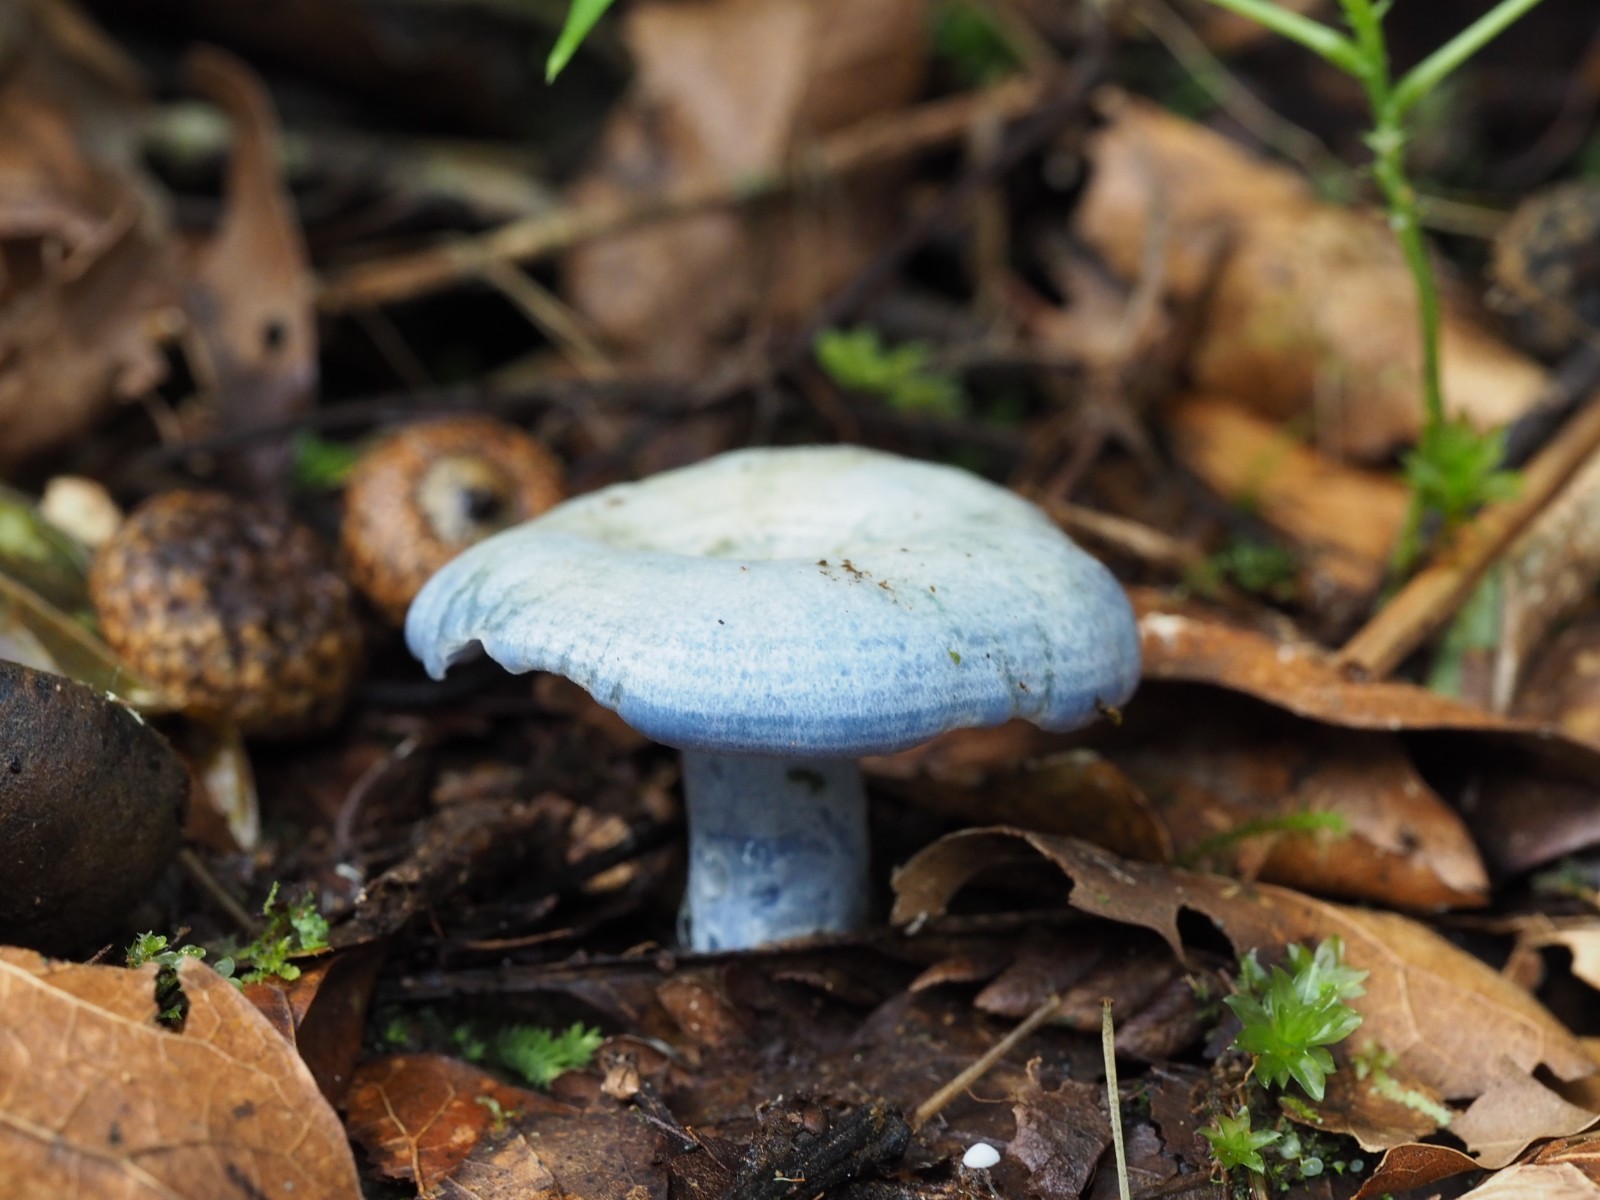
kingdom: Fungi
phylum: Basidiomycota
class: Agaricomycetes
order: Russulales
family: Russulaceae
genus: Lactarius
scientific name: Lactarius indigo
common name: Indigo milk cap
